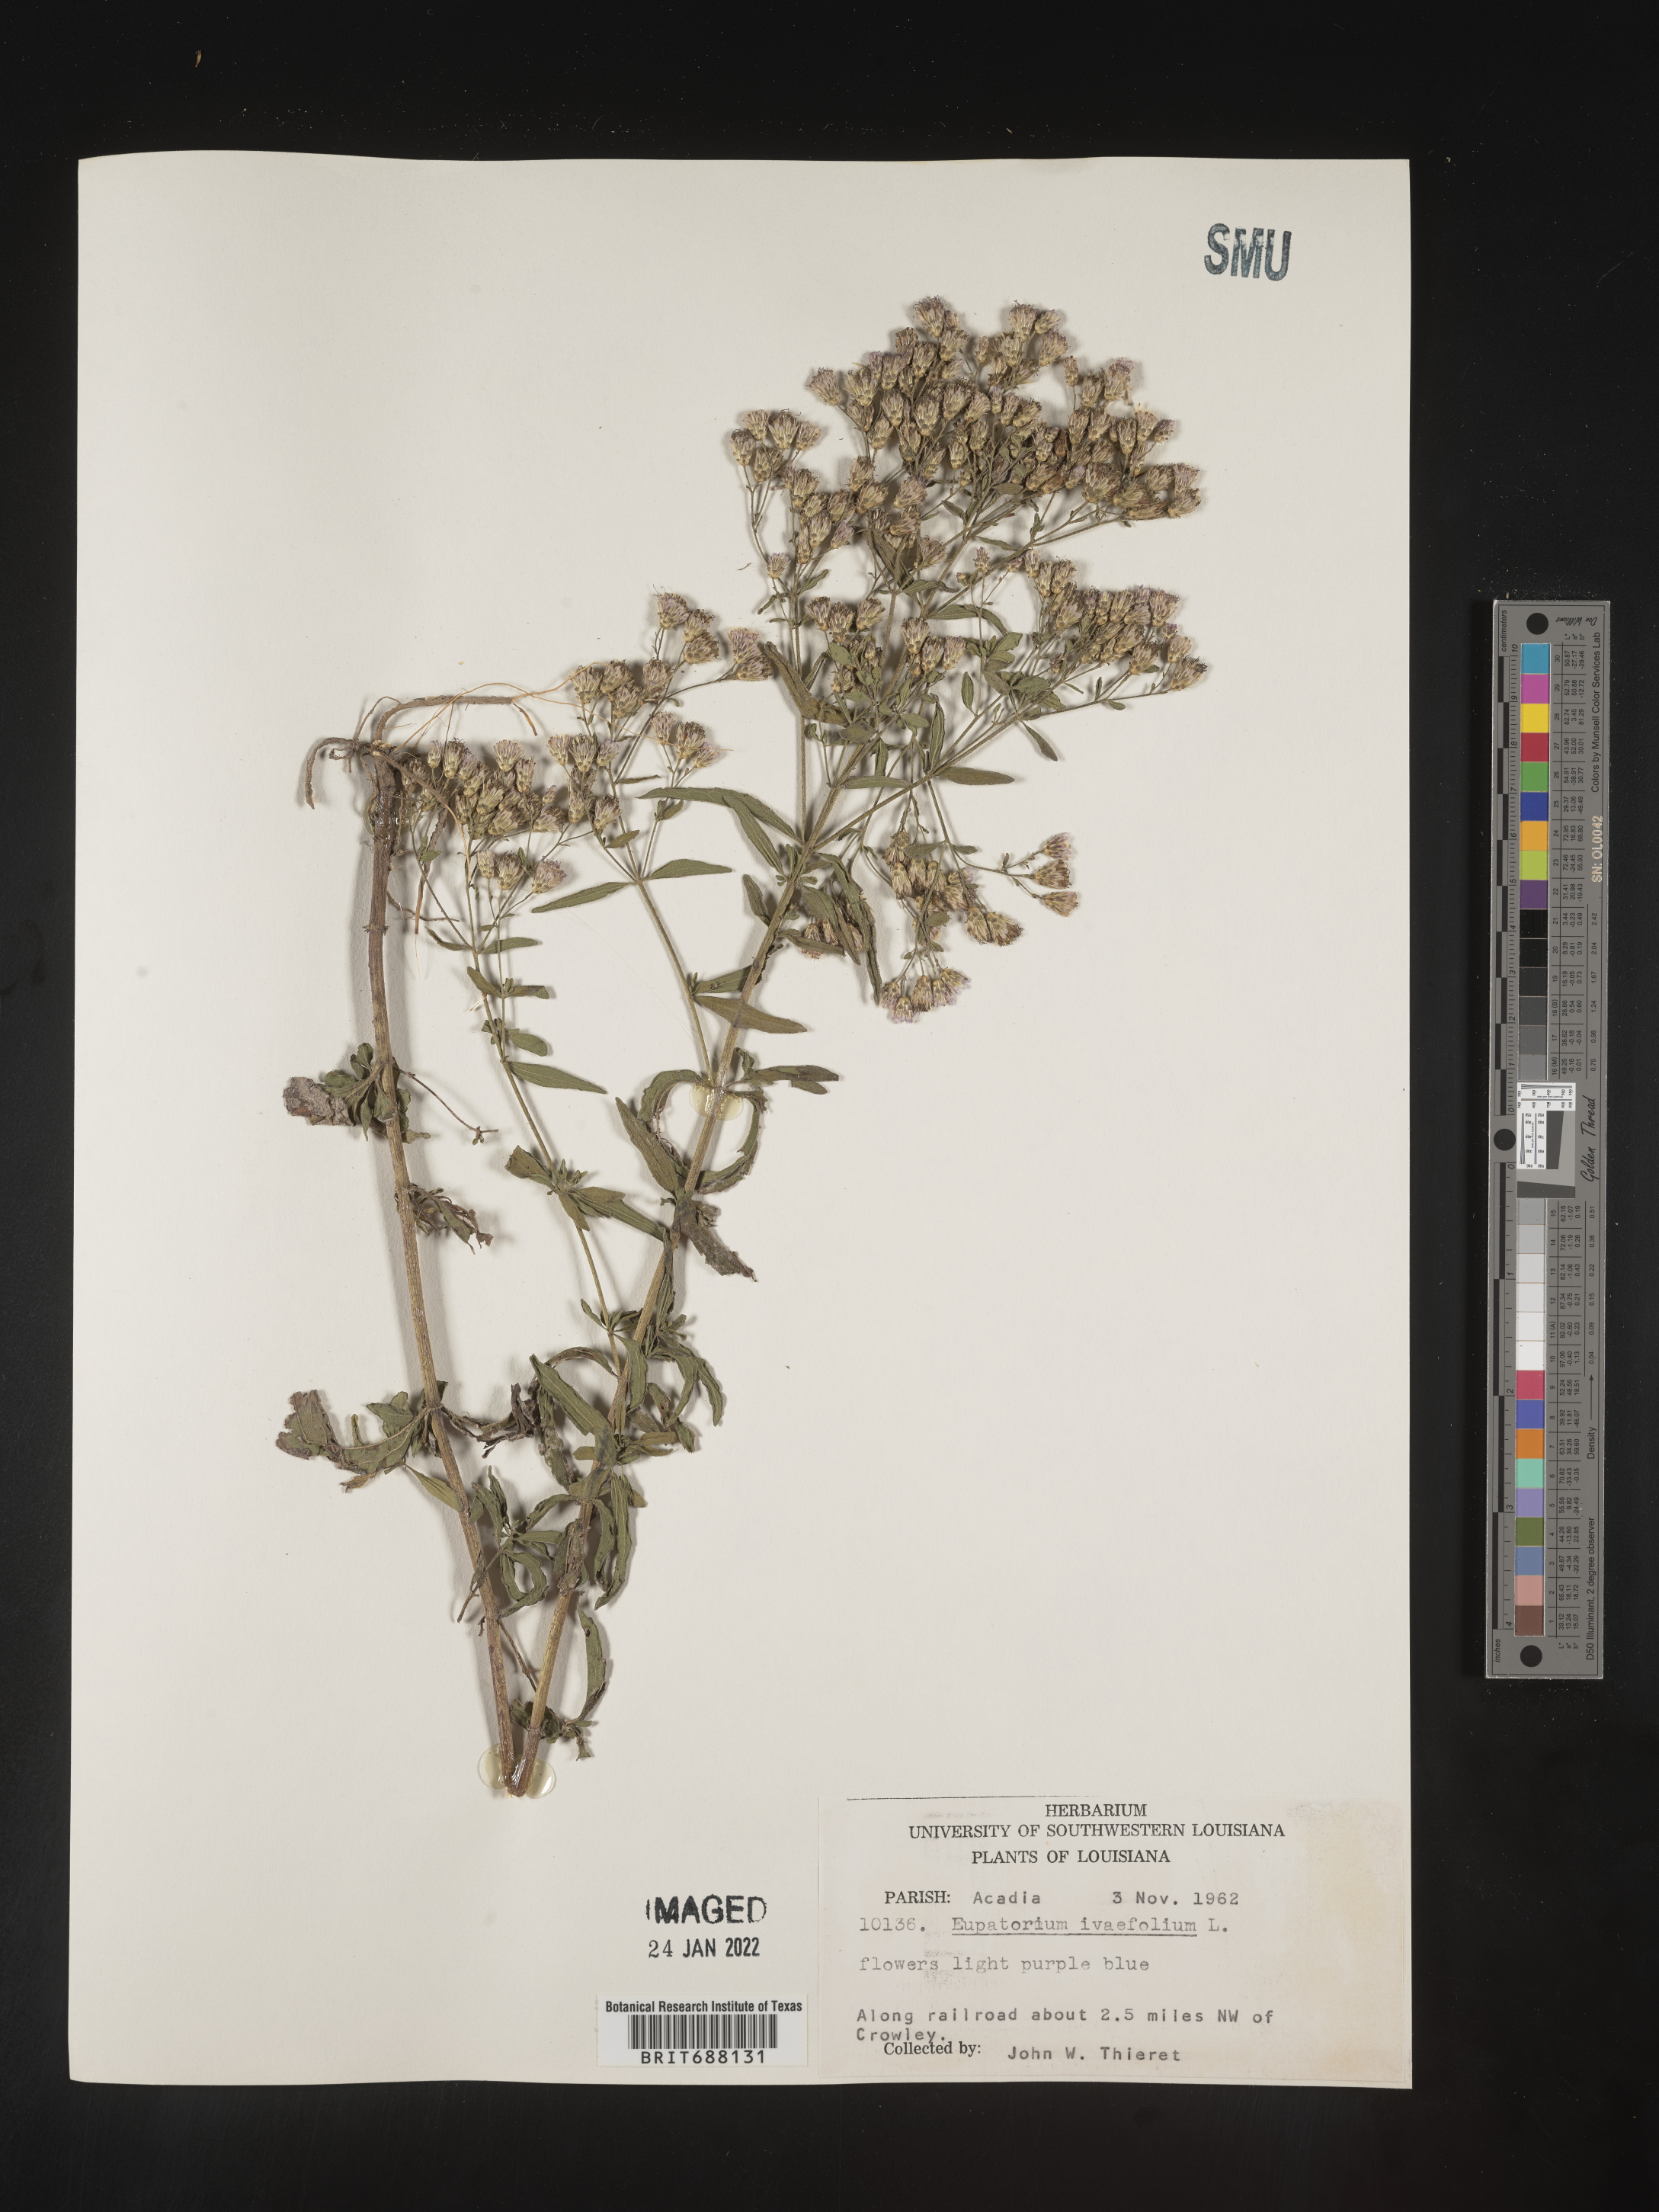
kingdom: Plantae
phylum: Tracheophyta
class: Magnoliopsida
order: Asterales
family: Asteraceae
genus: Chromolaena
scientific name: Chromolaena ivifolia
